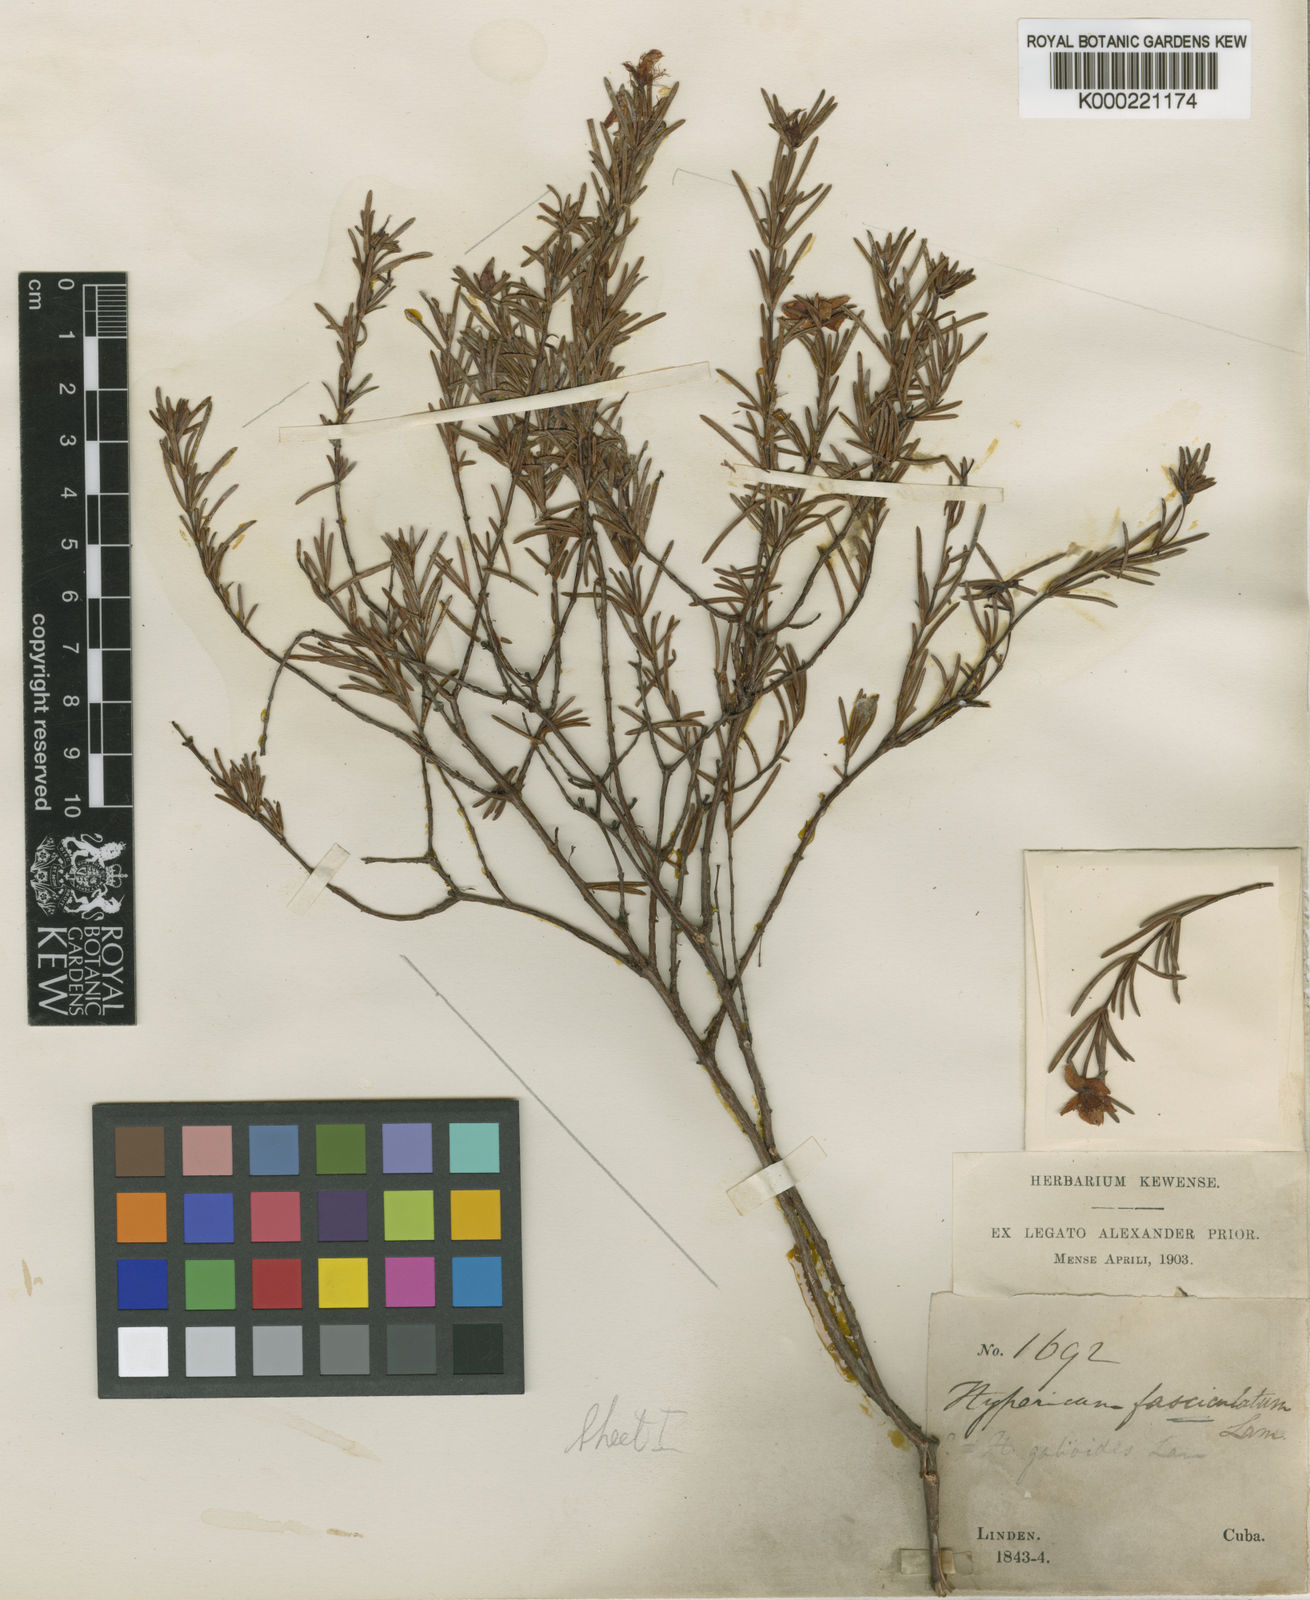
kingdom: Plantae
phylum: Tracheophyta
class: Magnoliopsida
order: Malpighiales
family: Hypericaceae
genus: Hypericum
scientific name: Hypericum nitidum
